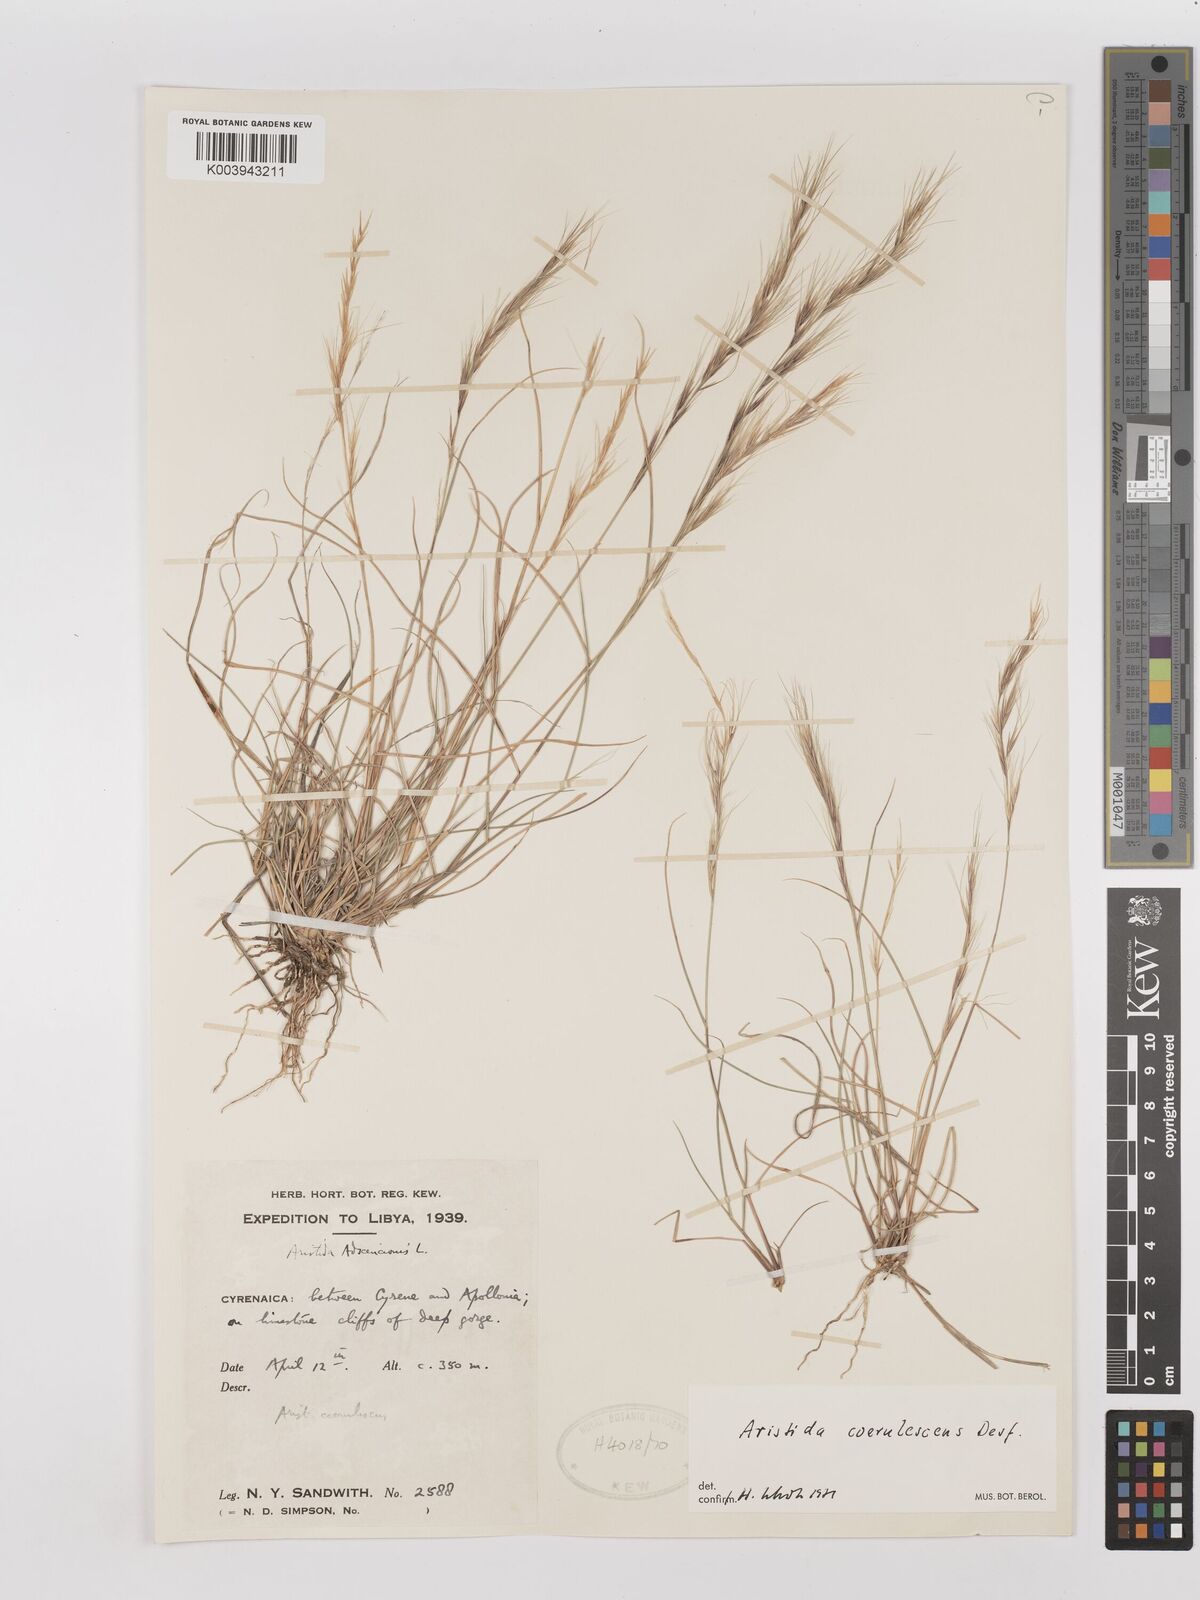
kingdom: Plantae
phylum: Tracheophyta
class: Liliopsida
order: Poales
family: Poaceae
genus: Aristida
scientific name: Aristida adscensionis
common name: Sixweeks threeawn
